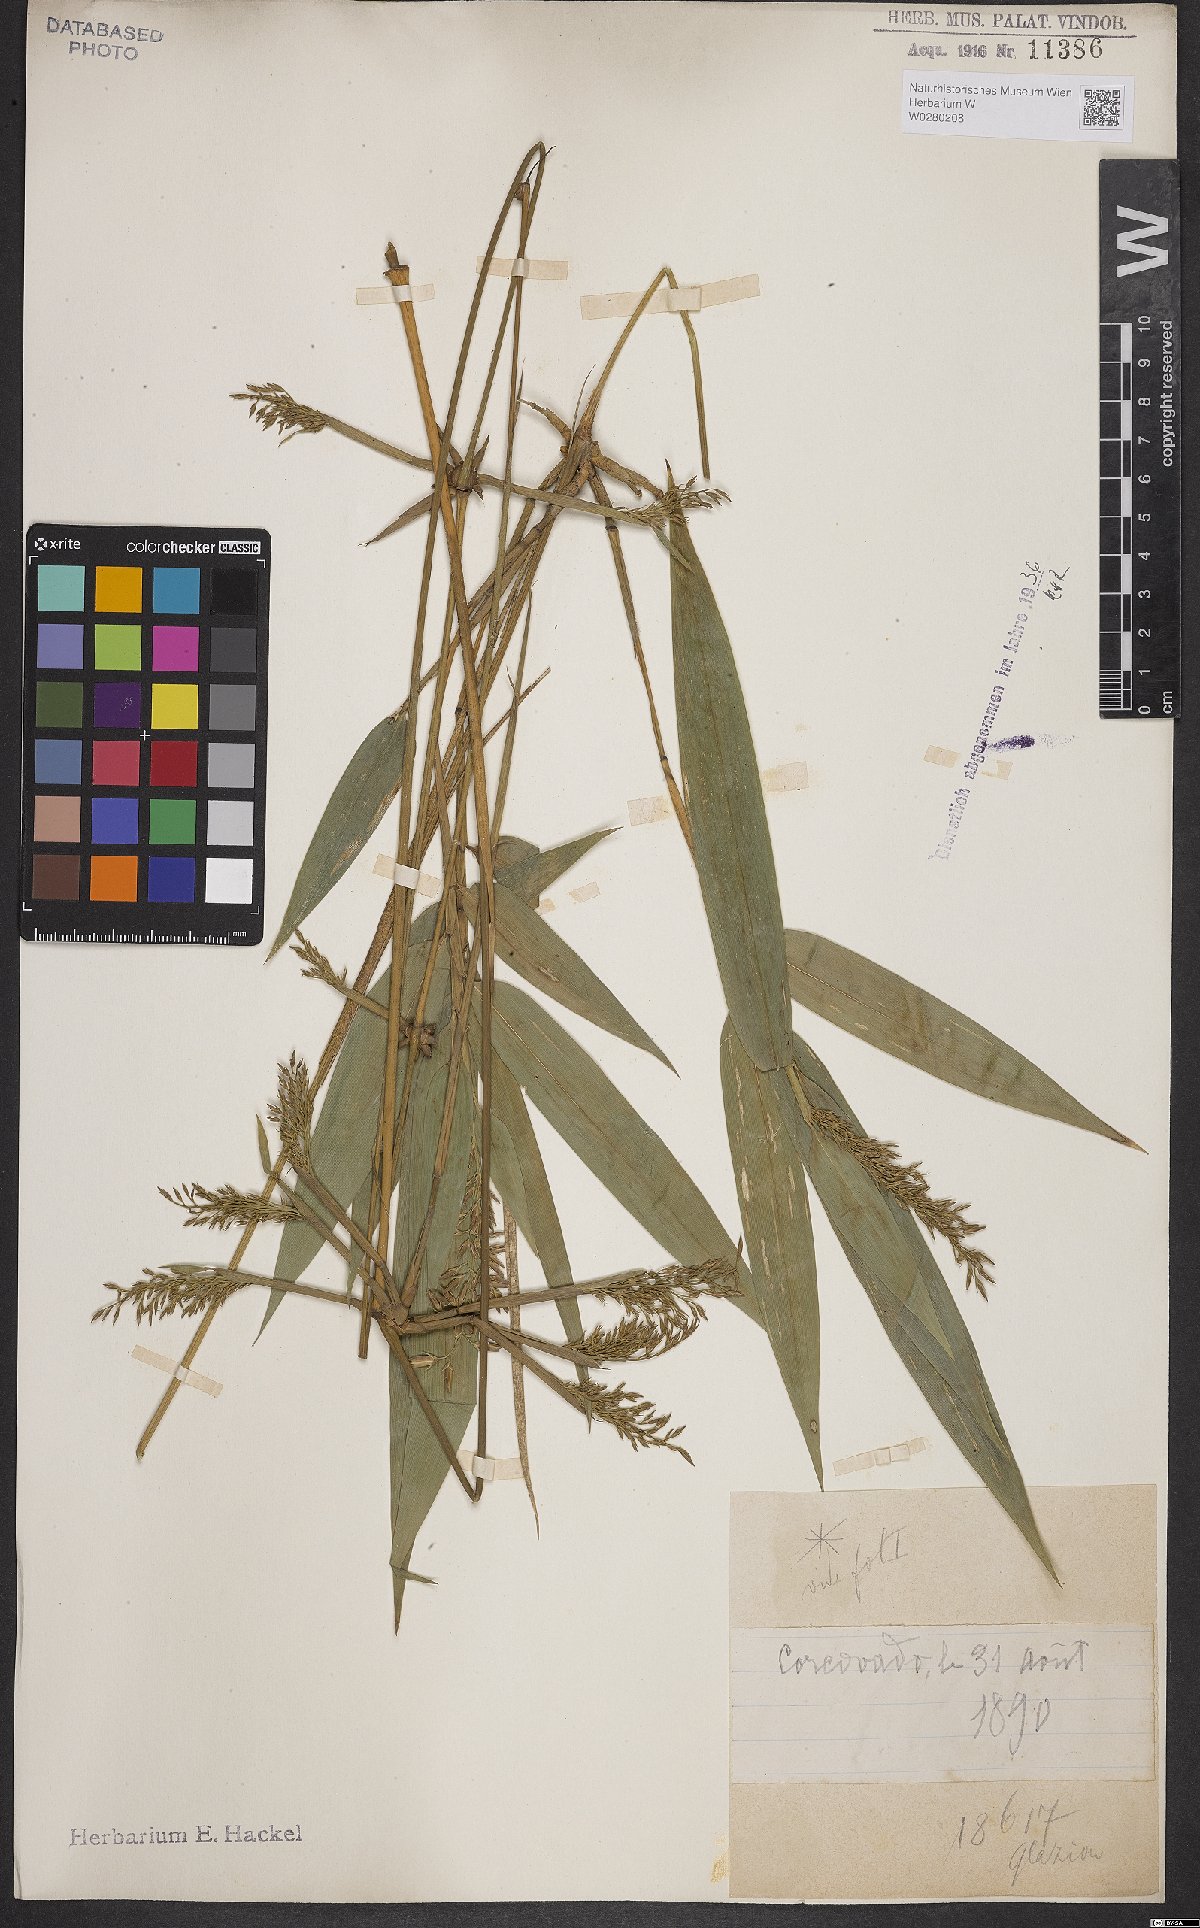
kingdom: Plantae
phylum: Tracheophyta
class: Liliopsida
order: Poales
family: Poaceae
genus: Chusquea
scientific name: Chusquea bambusoides
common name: Brazil scrambling bamboo
